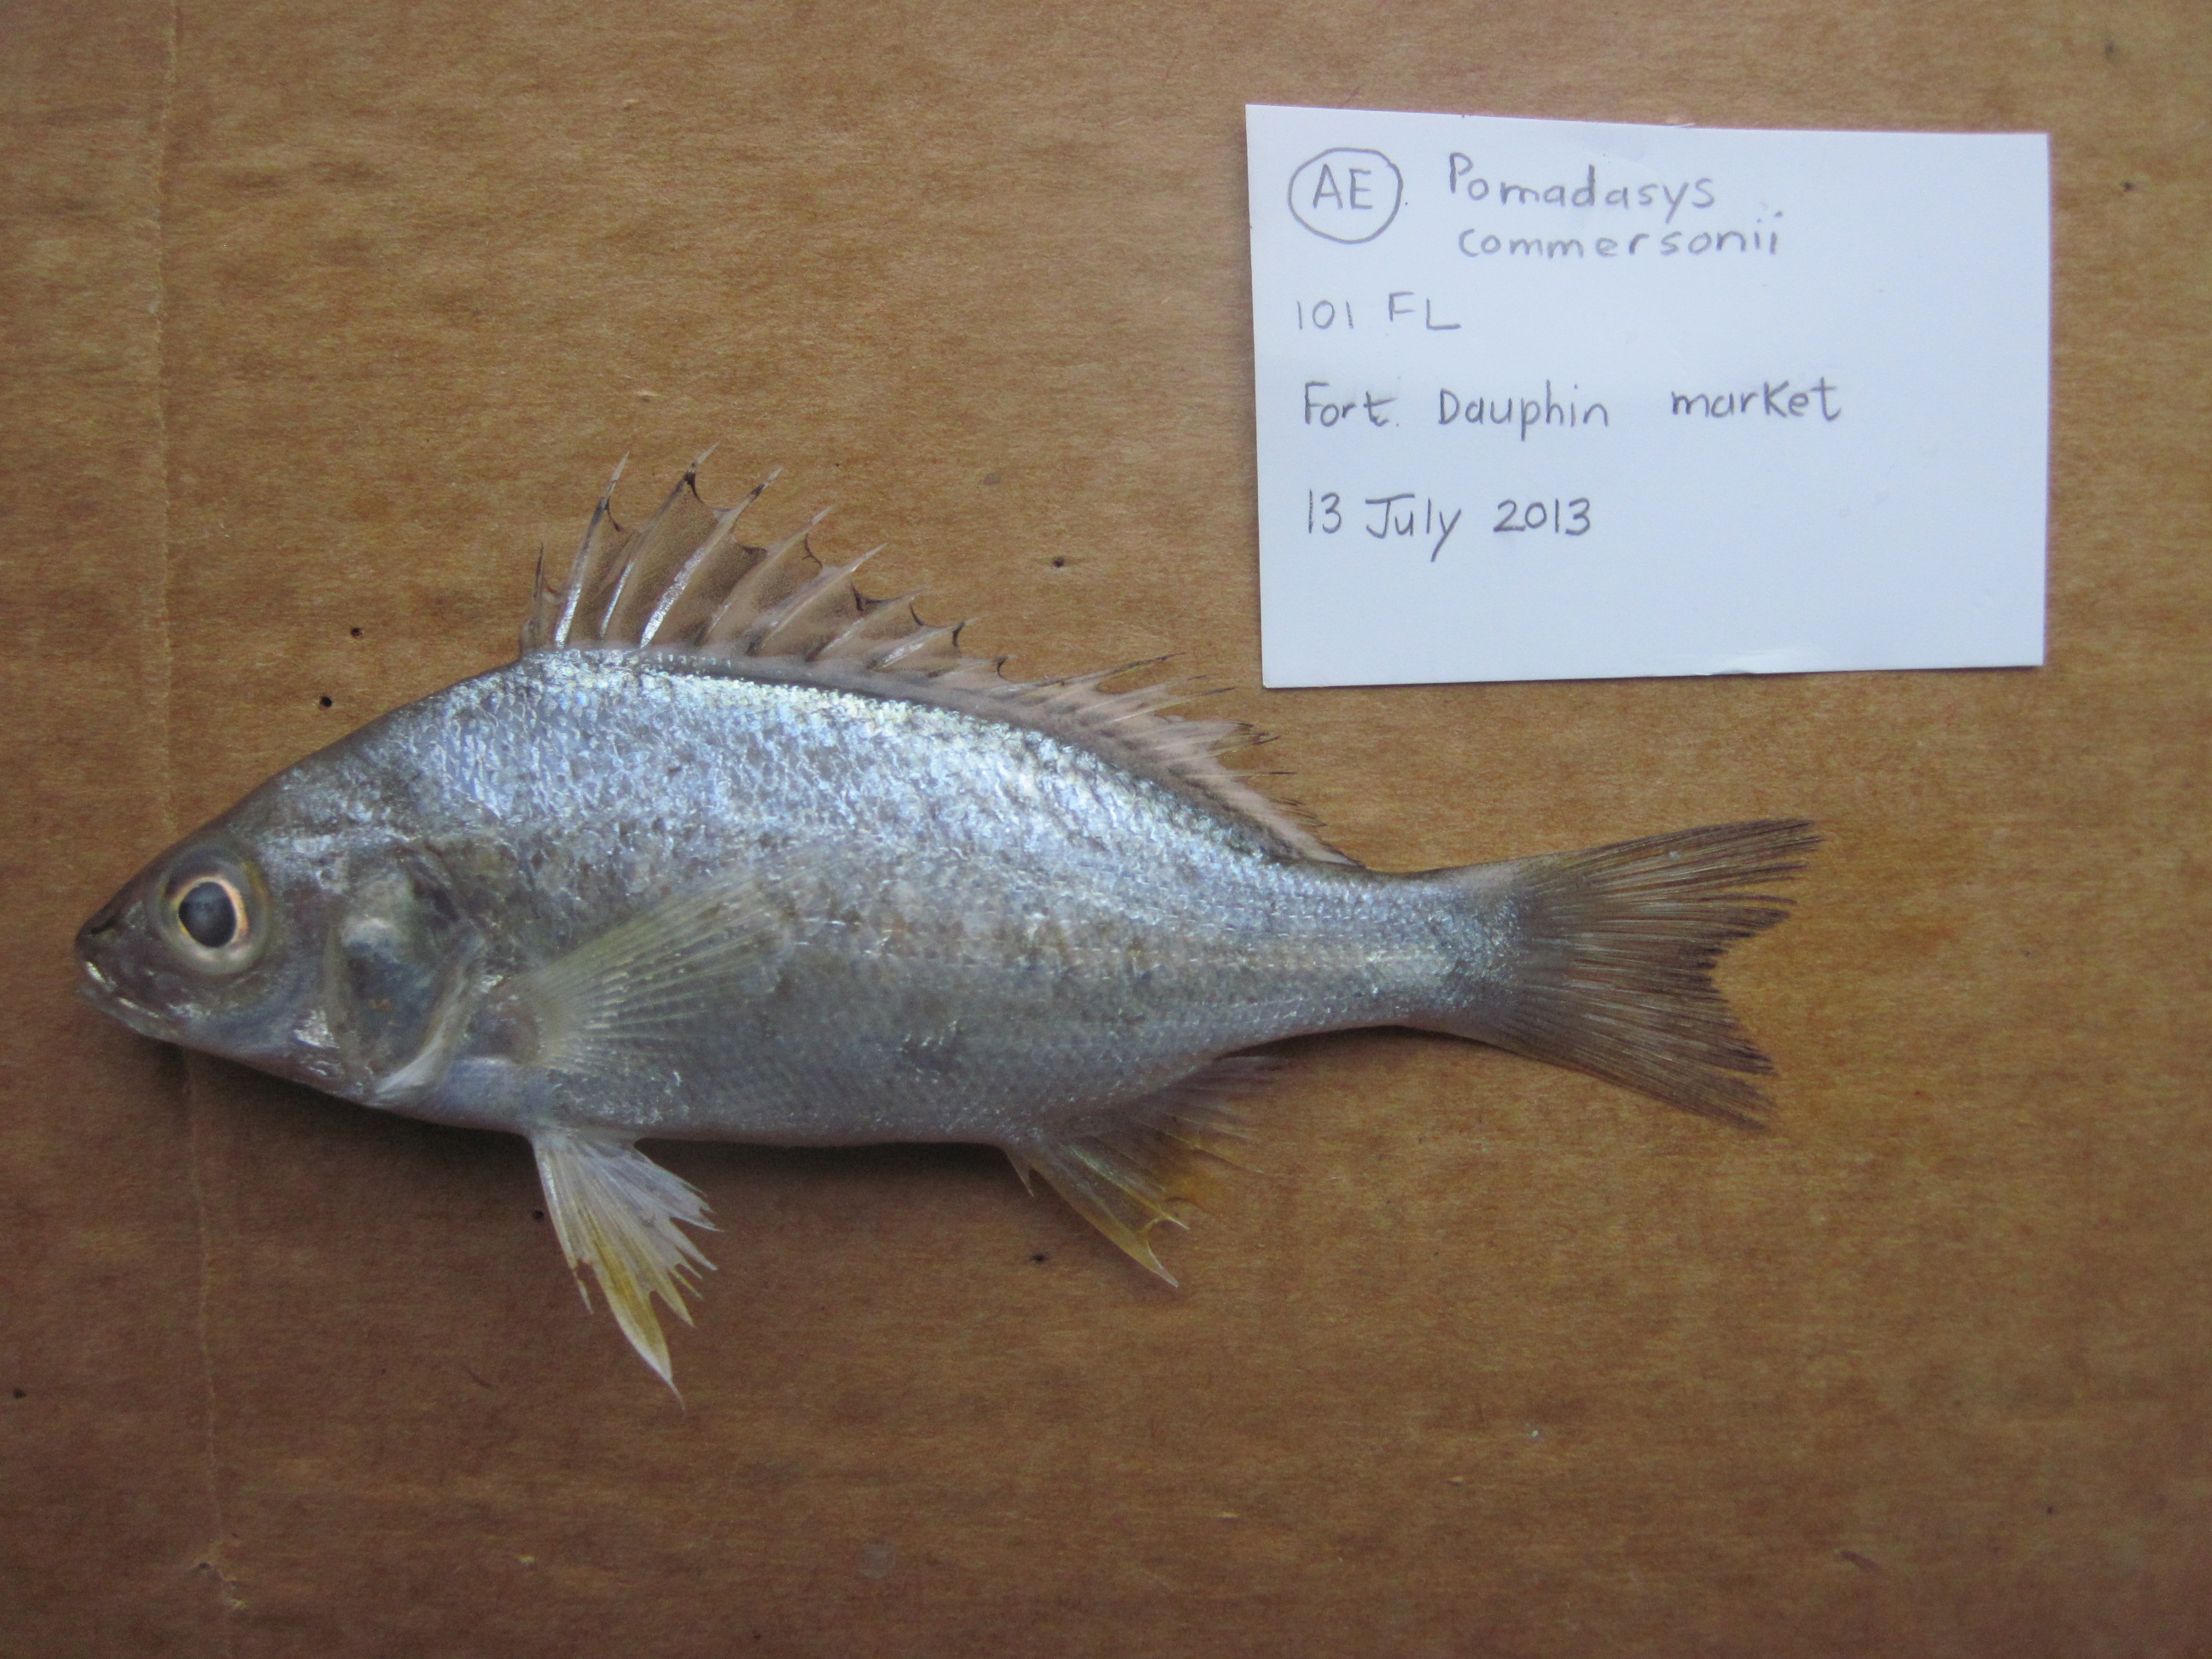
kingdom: Animalia
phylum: Chordata
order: Perciformes
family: Haemulidae
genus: Pomadasys
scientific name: Pomadasys commersonnii
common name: Smallspotted grunter
